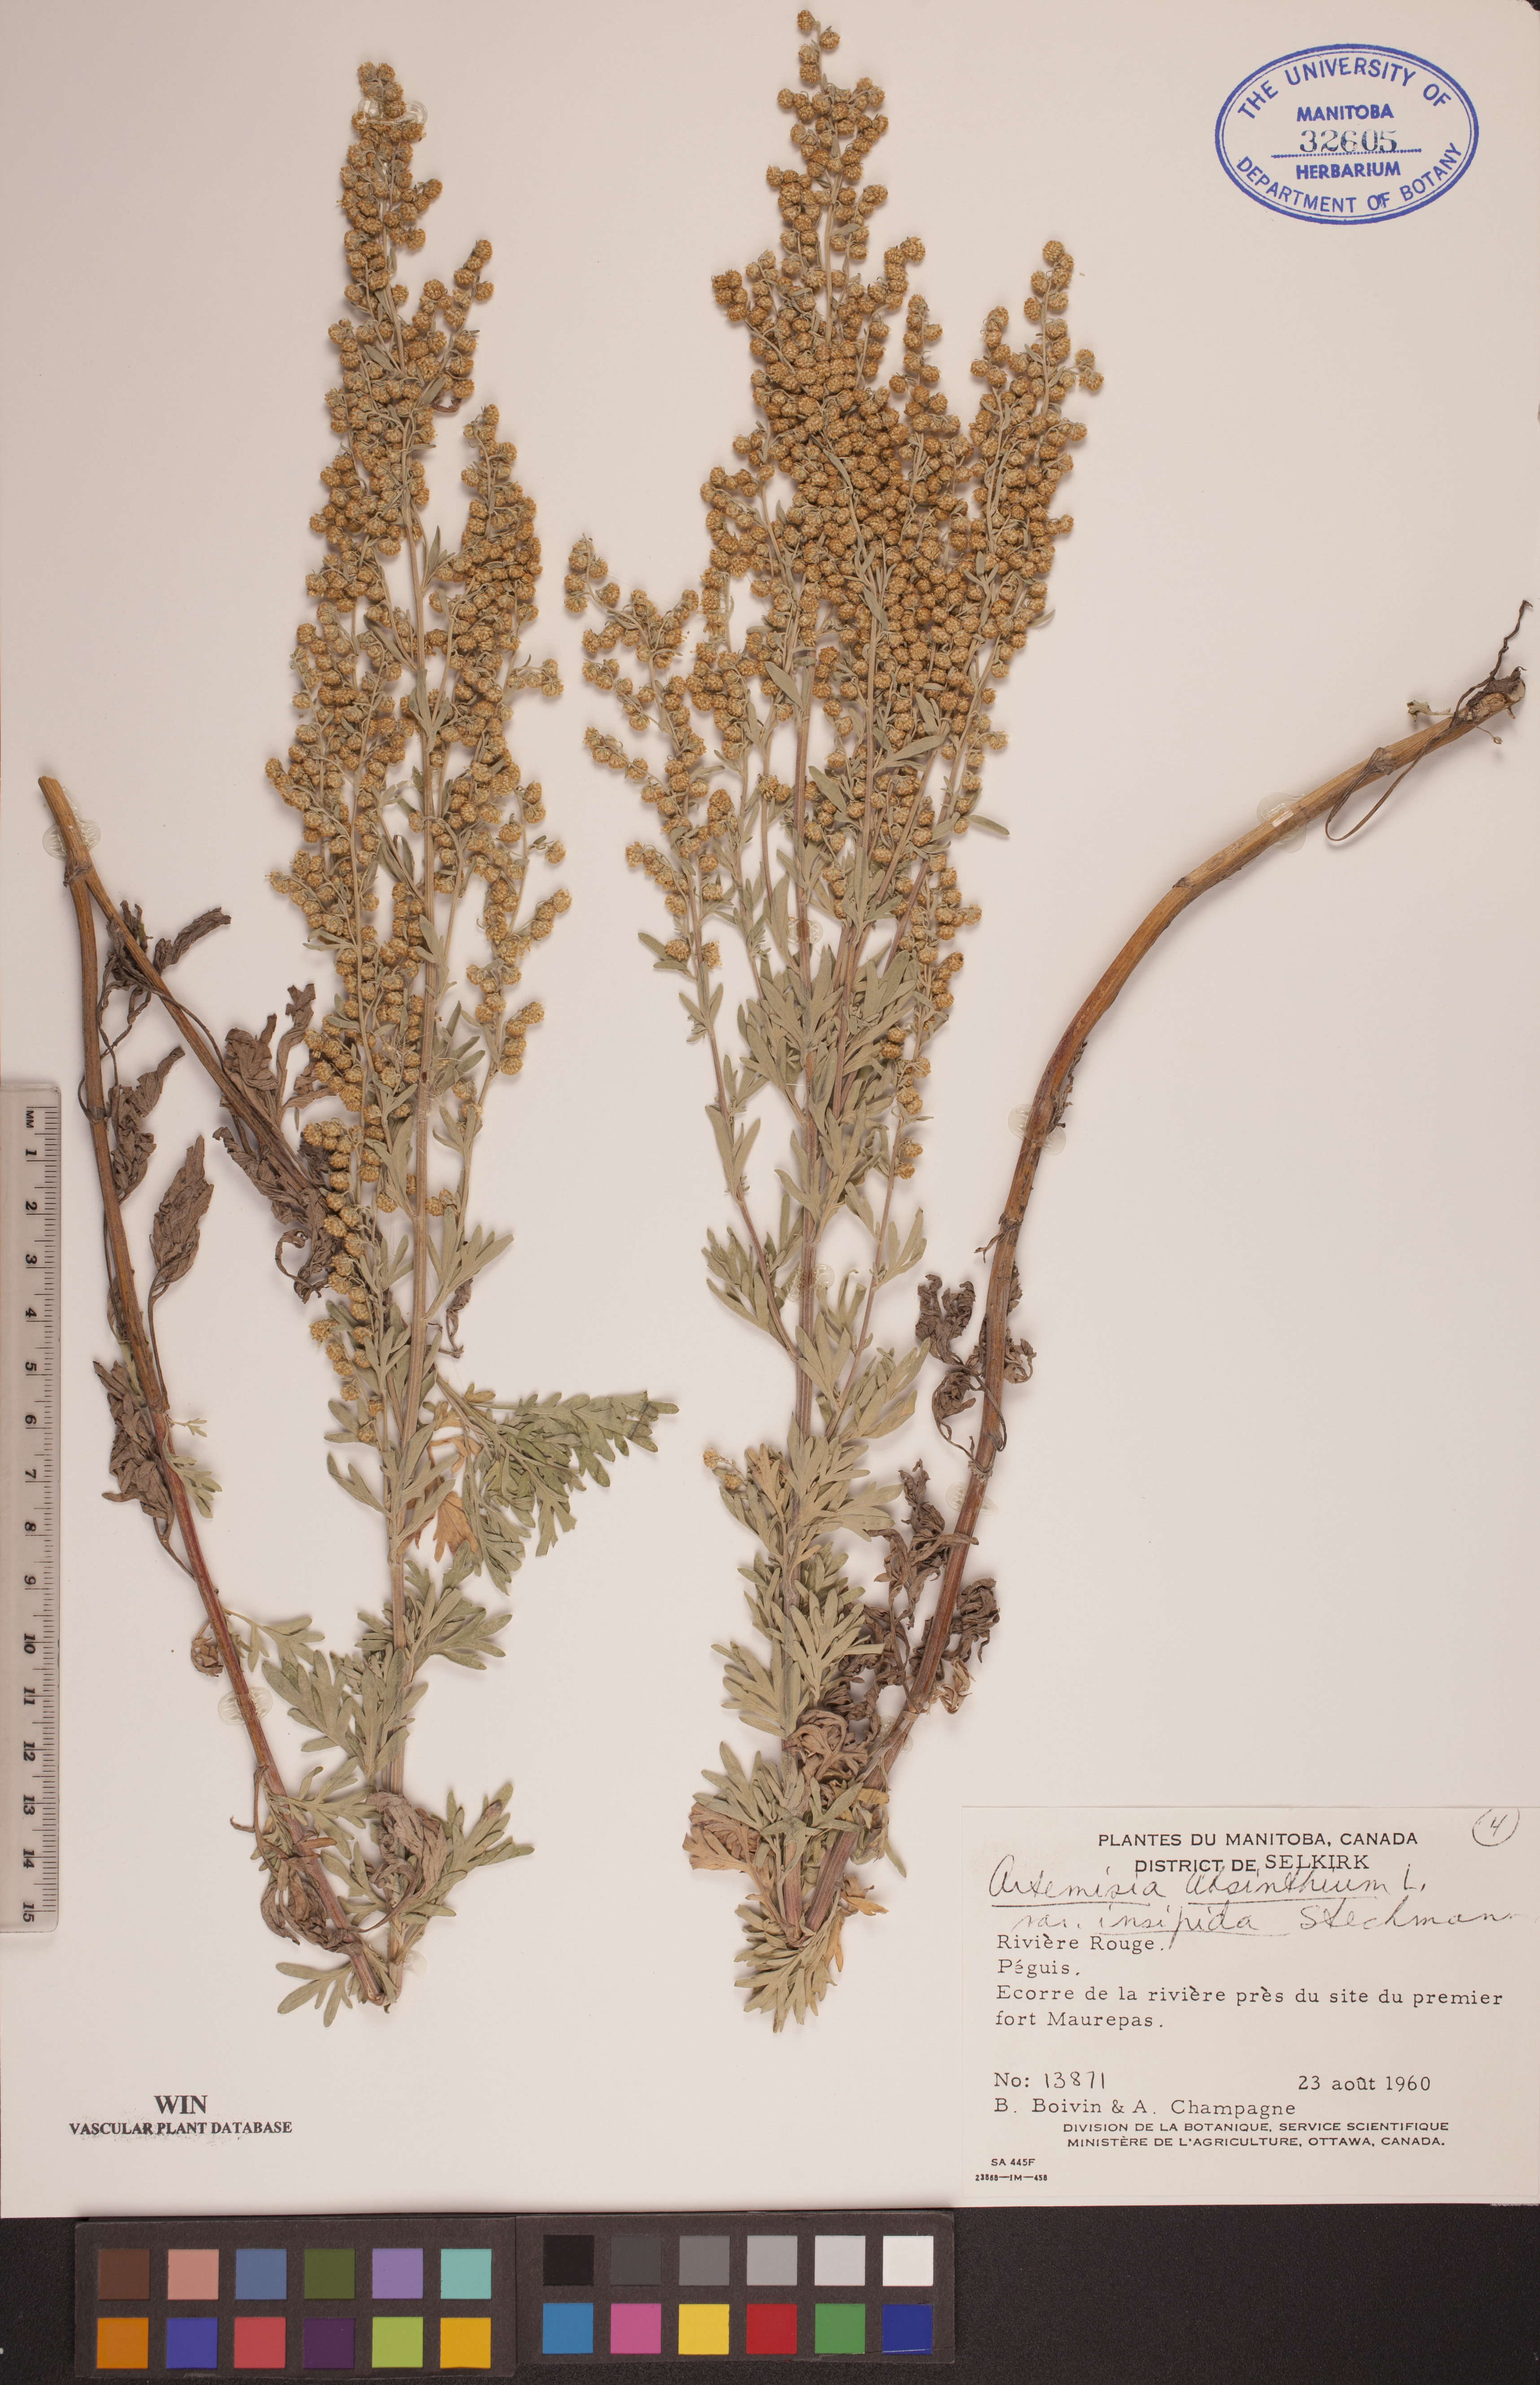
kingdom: Plantae
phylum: Tracheophyta
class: Magnoliopsida
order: Asterales
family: Asteraceae
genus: Artemisia
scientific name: Artemisia absinthium
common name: Wormwood
